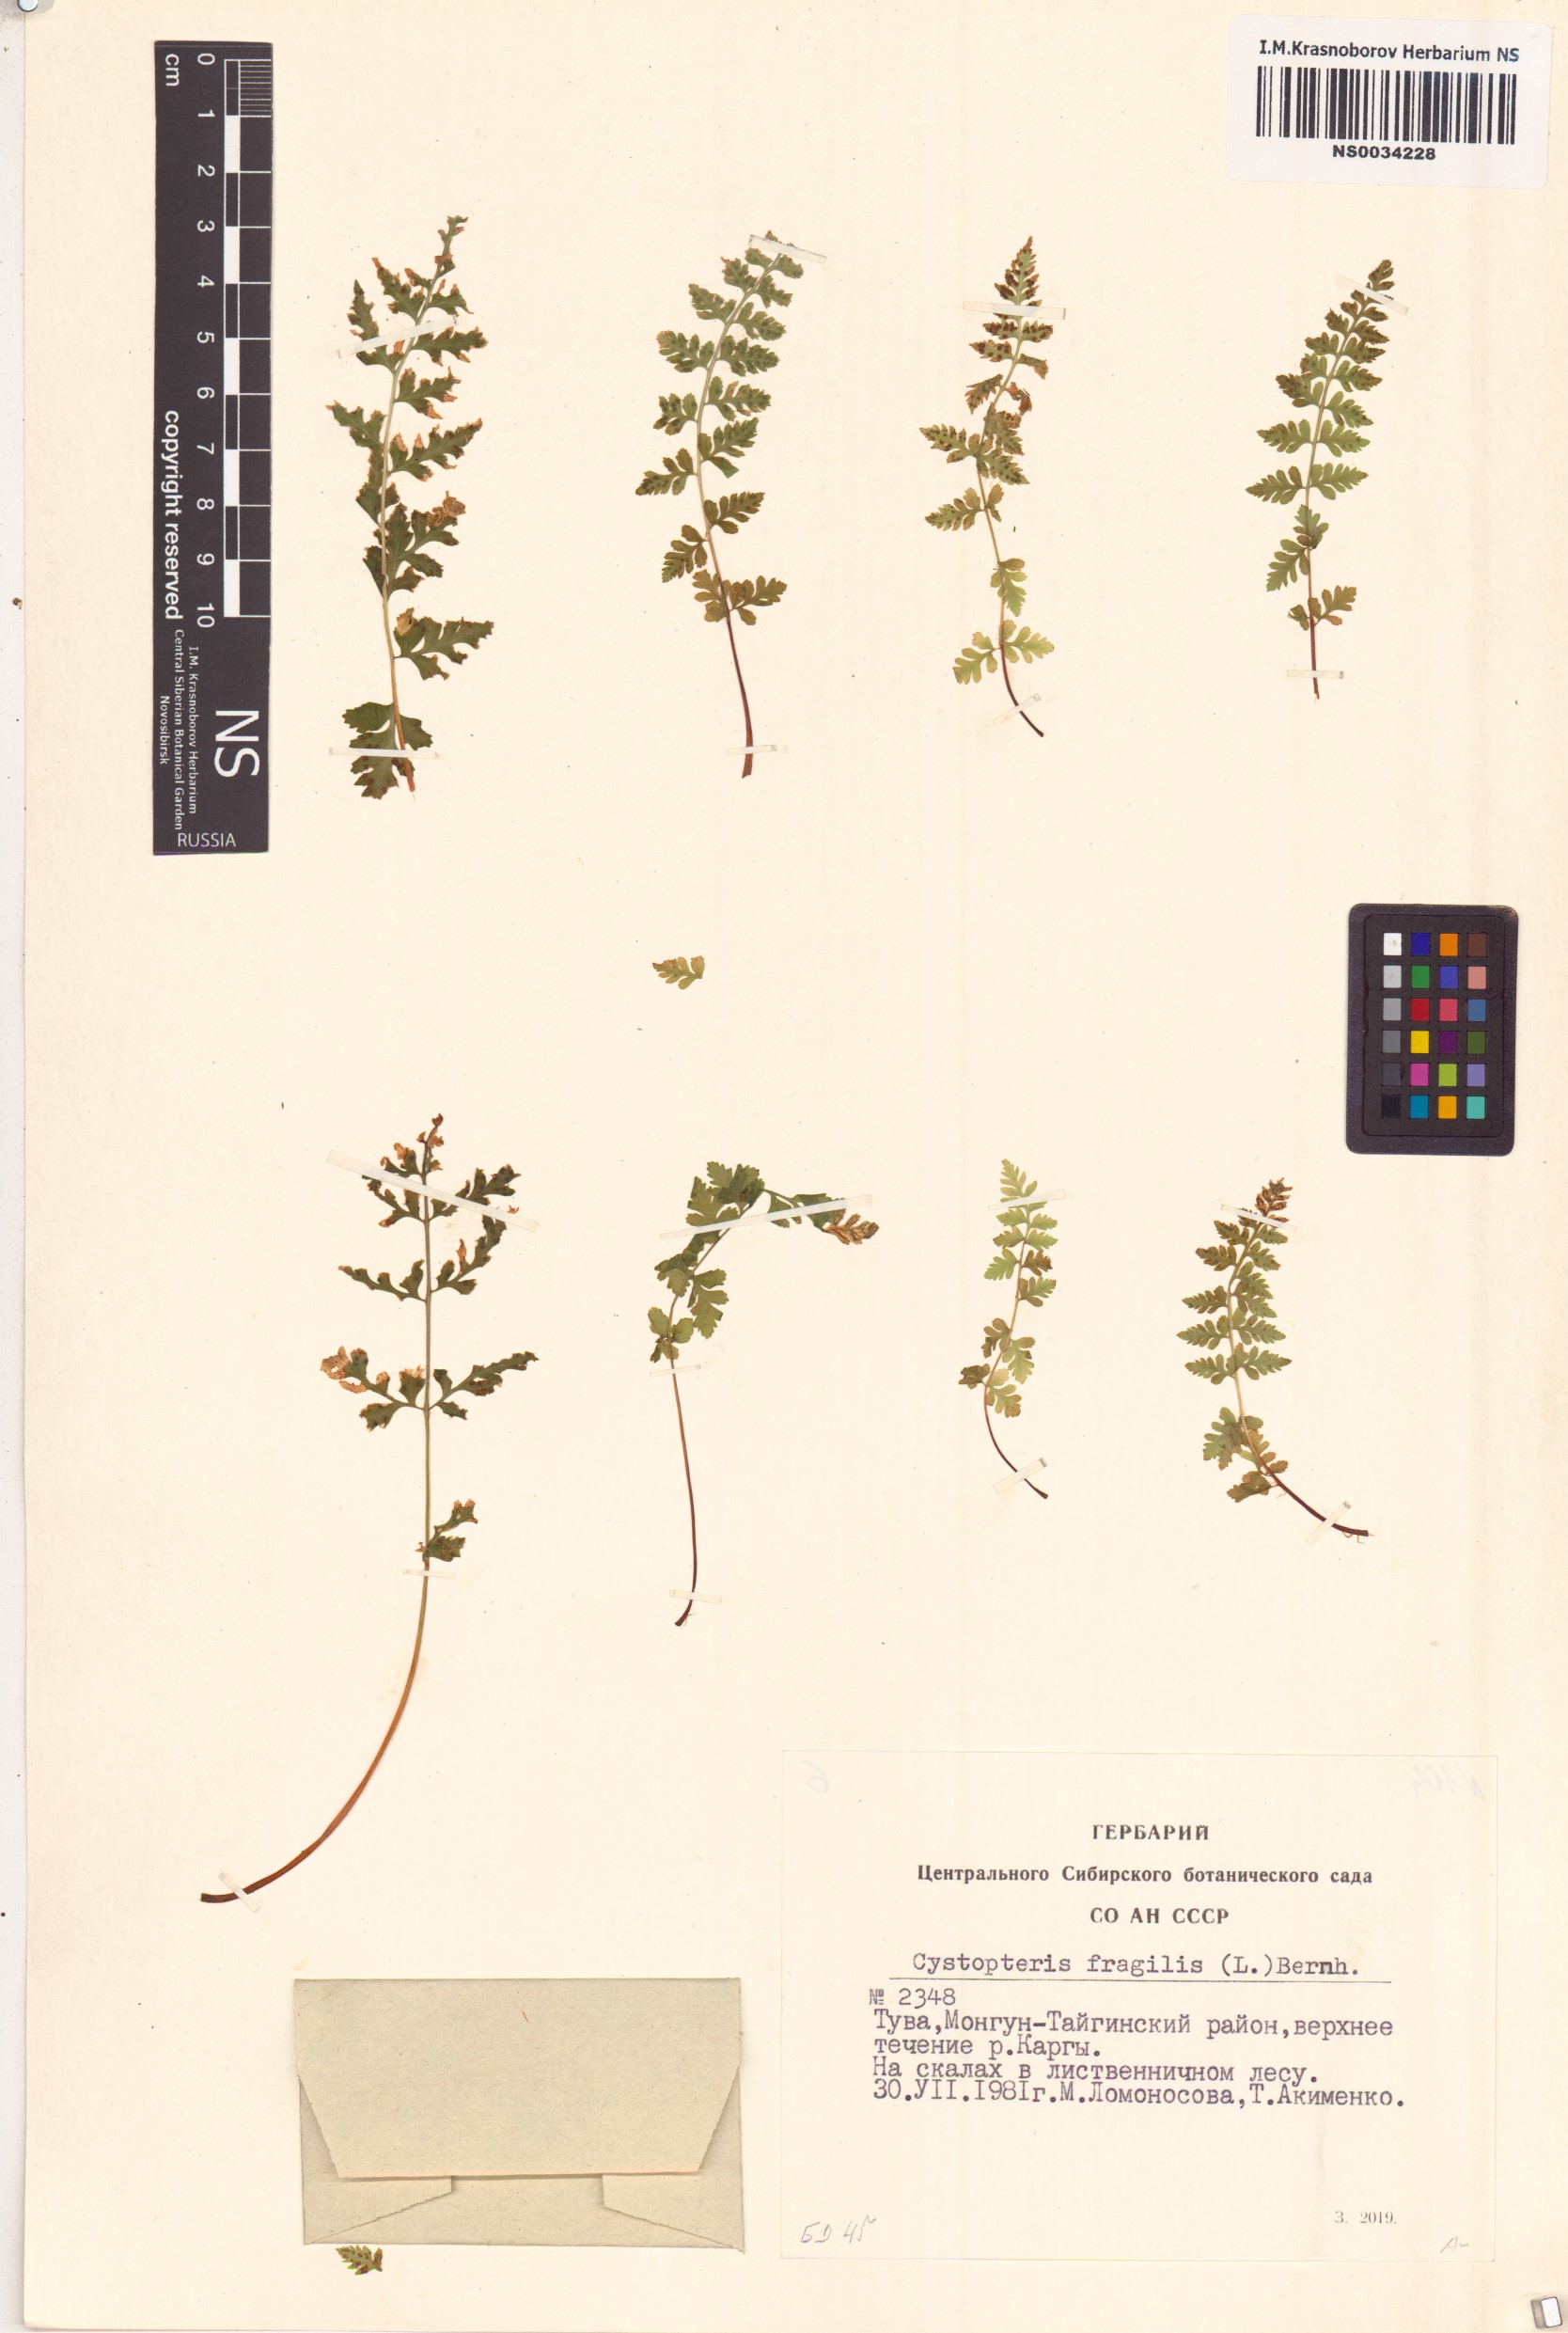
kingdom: Plantae
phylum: Tracheophyta
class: Polypodiopsida
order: Polypodiales
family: Cystopteridaceae
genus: Cystopteris
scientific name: Cystopteris fragilis
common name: Brittle bladder fern
